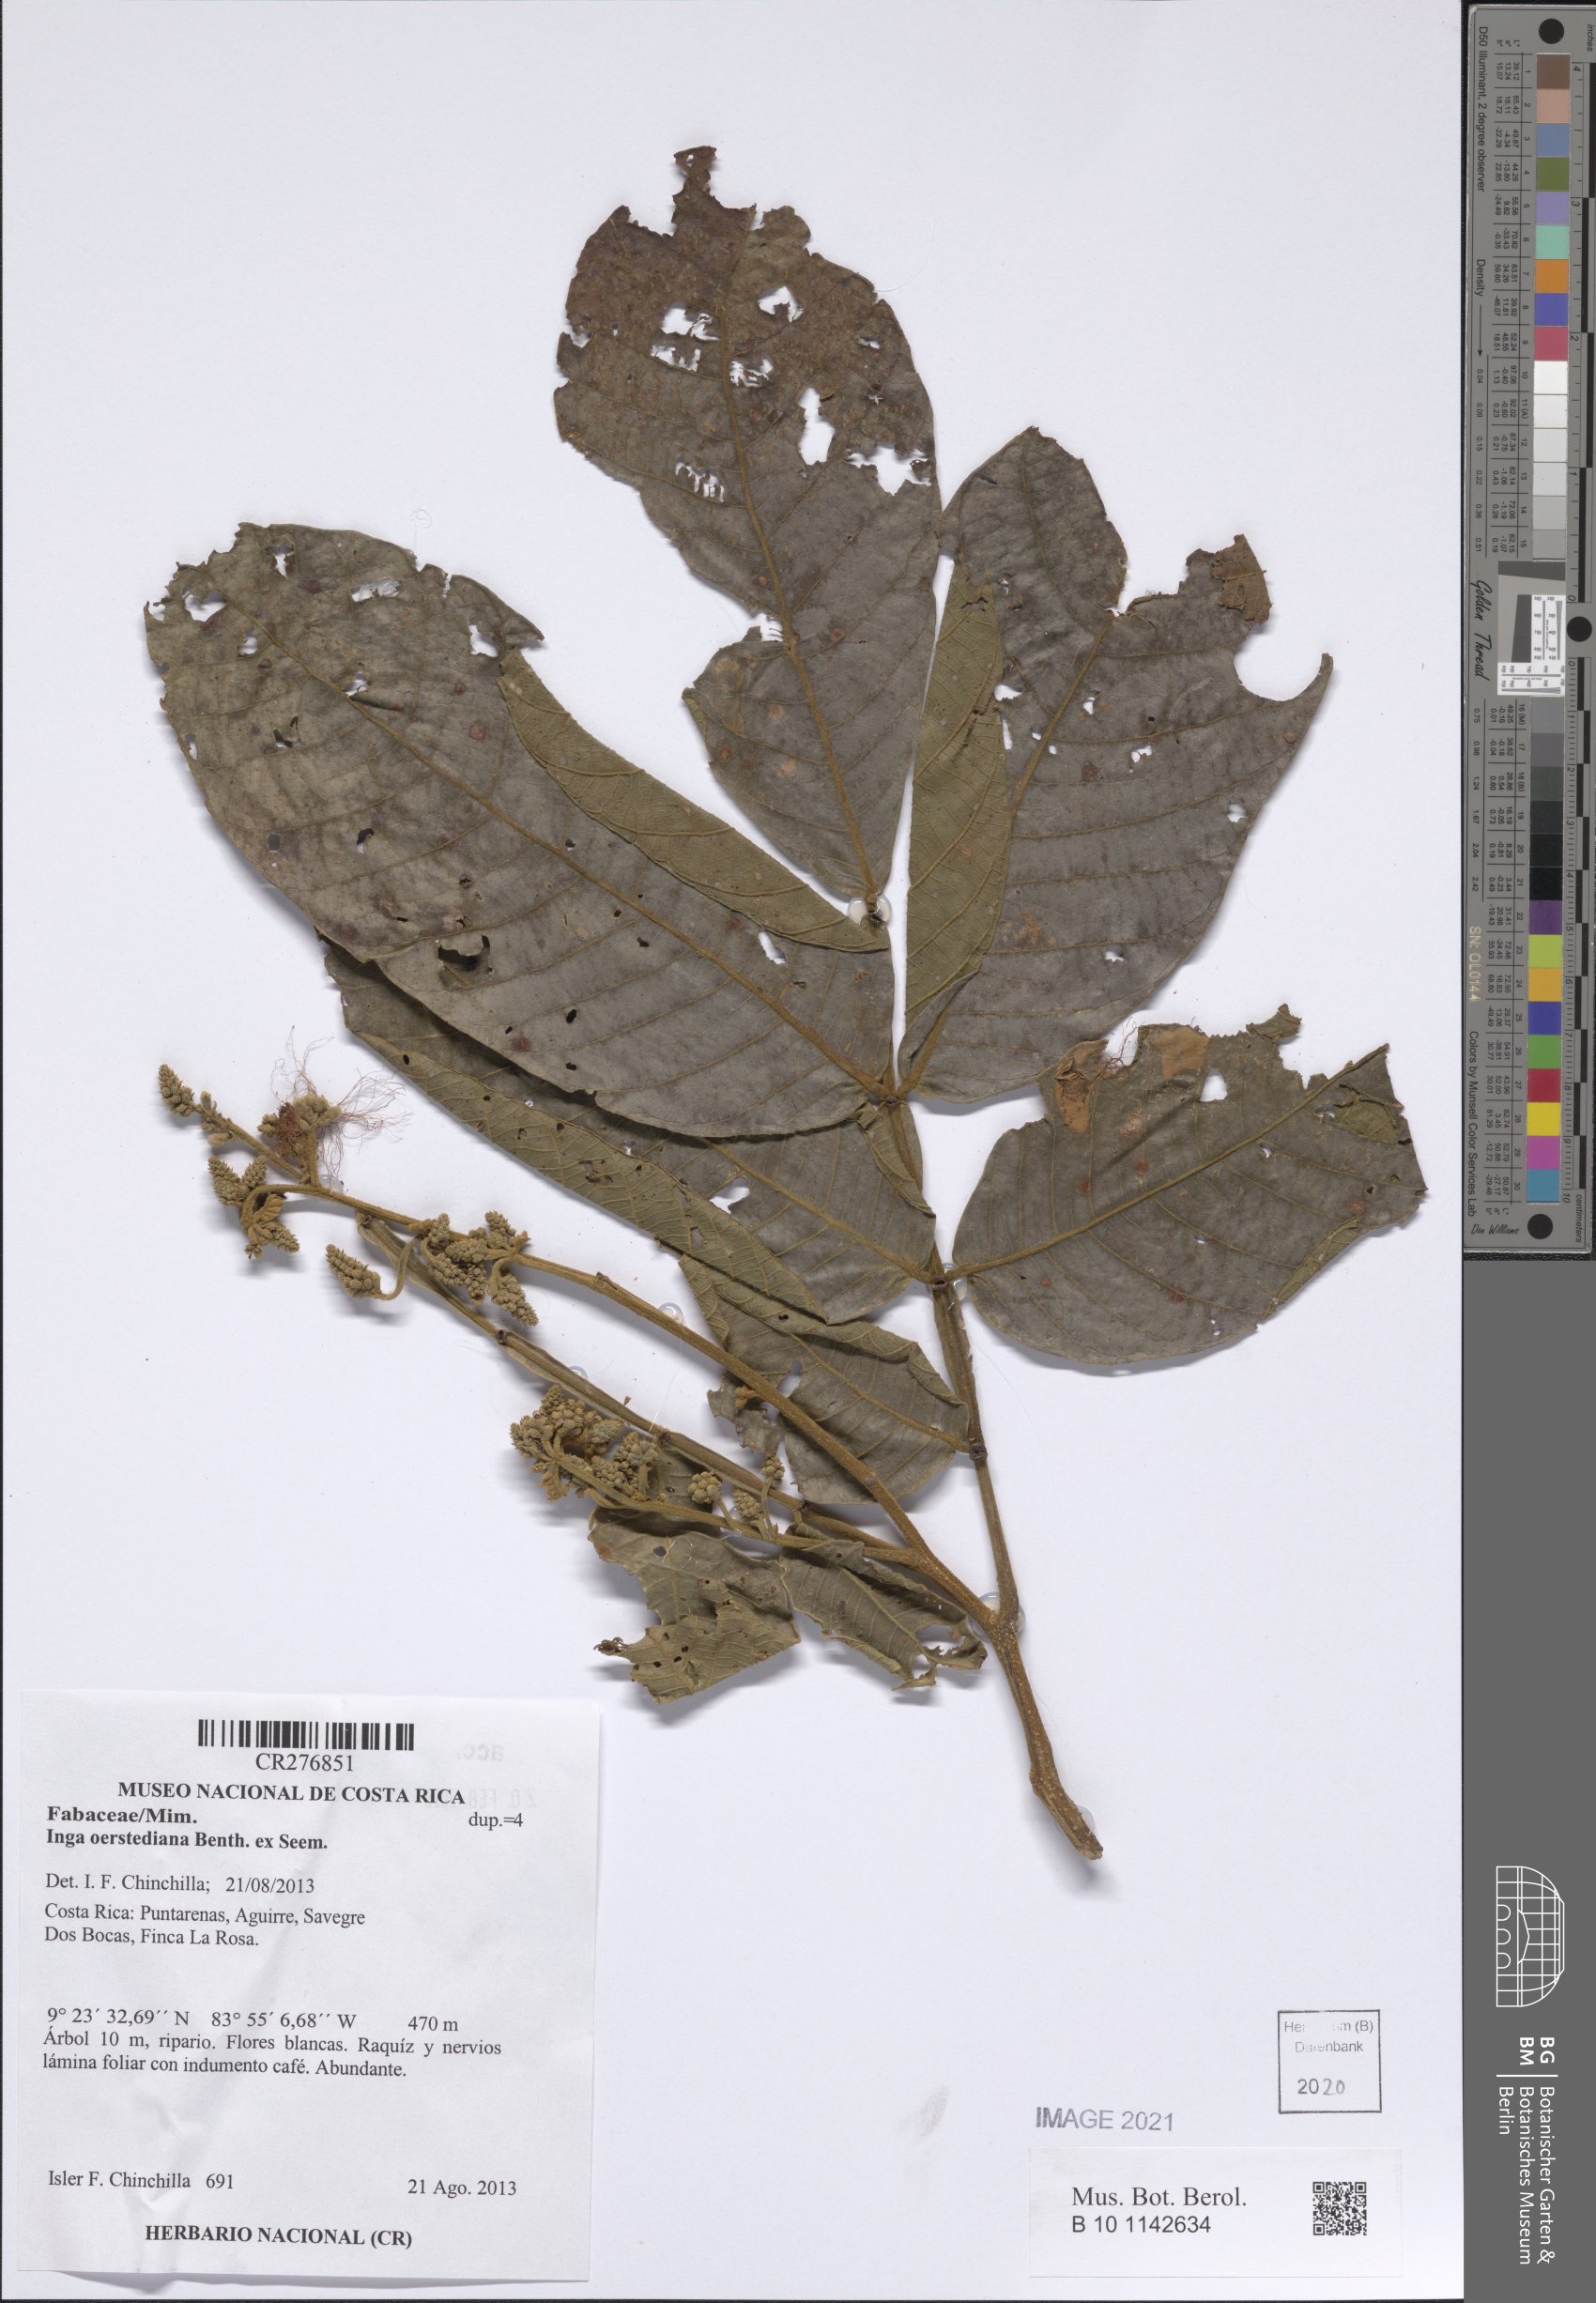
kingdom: Plantae
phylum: Tracheophyta
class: Magnoliopsida
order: Fabales
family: Fabaceae
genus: Inga
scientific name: Inga oerstediana
